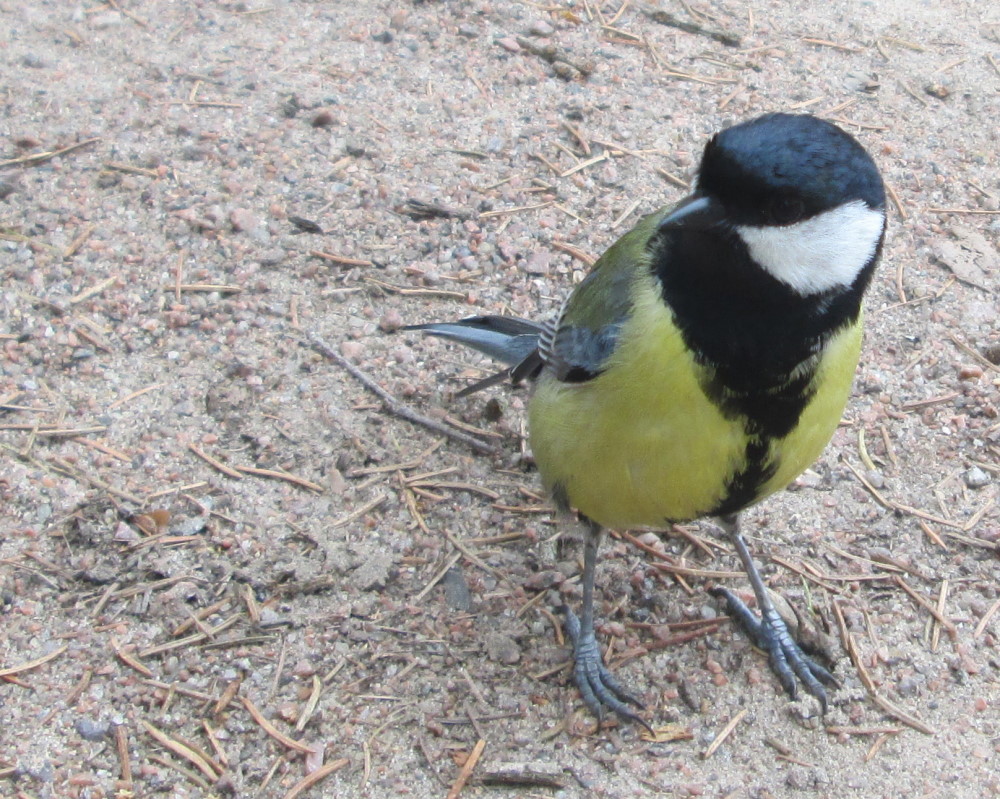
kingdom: Animalia
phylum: Chordata
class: Aves
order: Passeriformes
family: Paridae
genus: Parus
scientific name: Parus major
